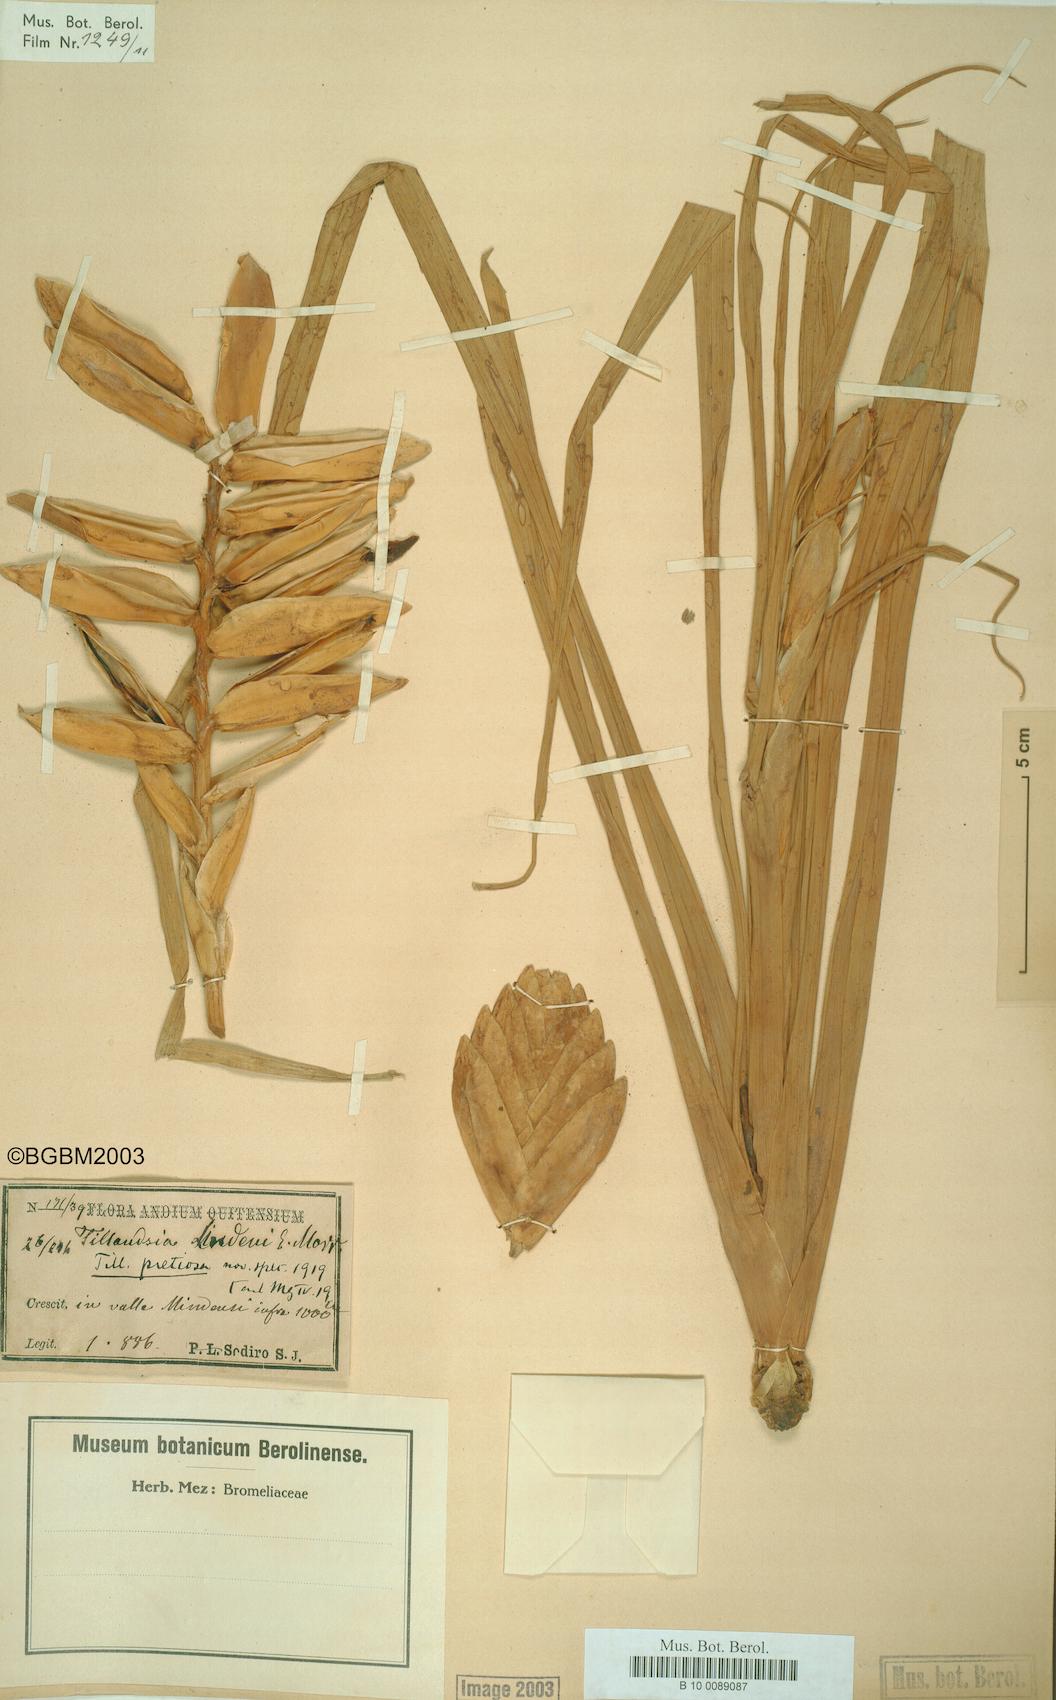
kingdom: Plantae
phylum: Tracheophyta
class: Liliopsida
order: Poales
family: Bromeliaceae
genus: Wallisia
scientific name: Wallisia pretiosa
